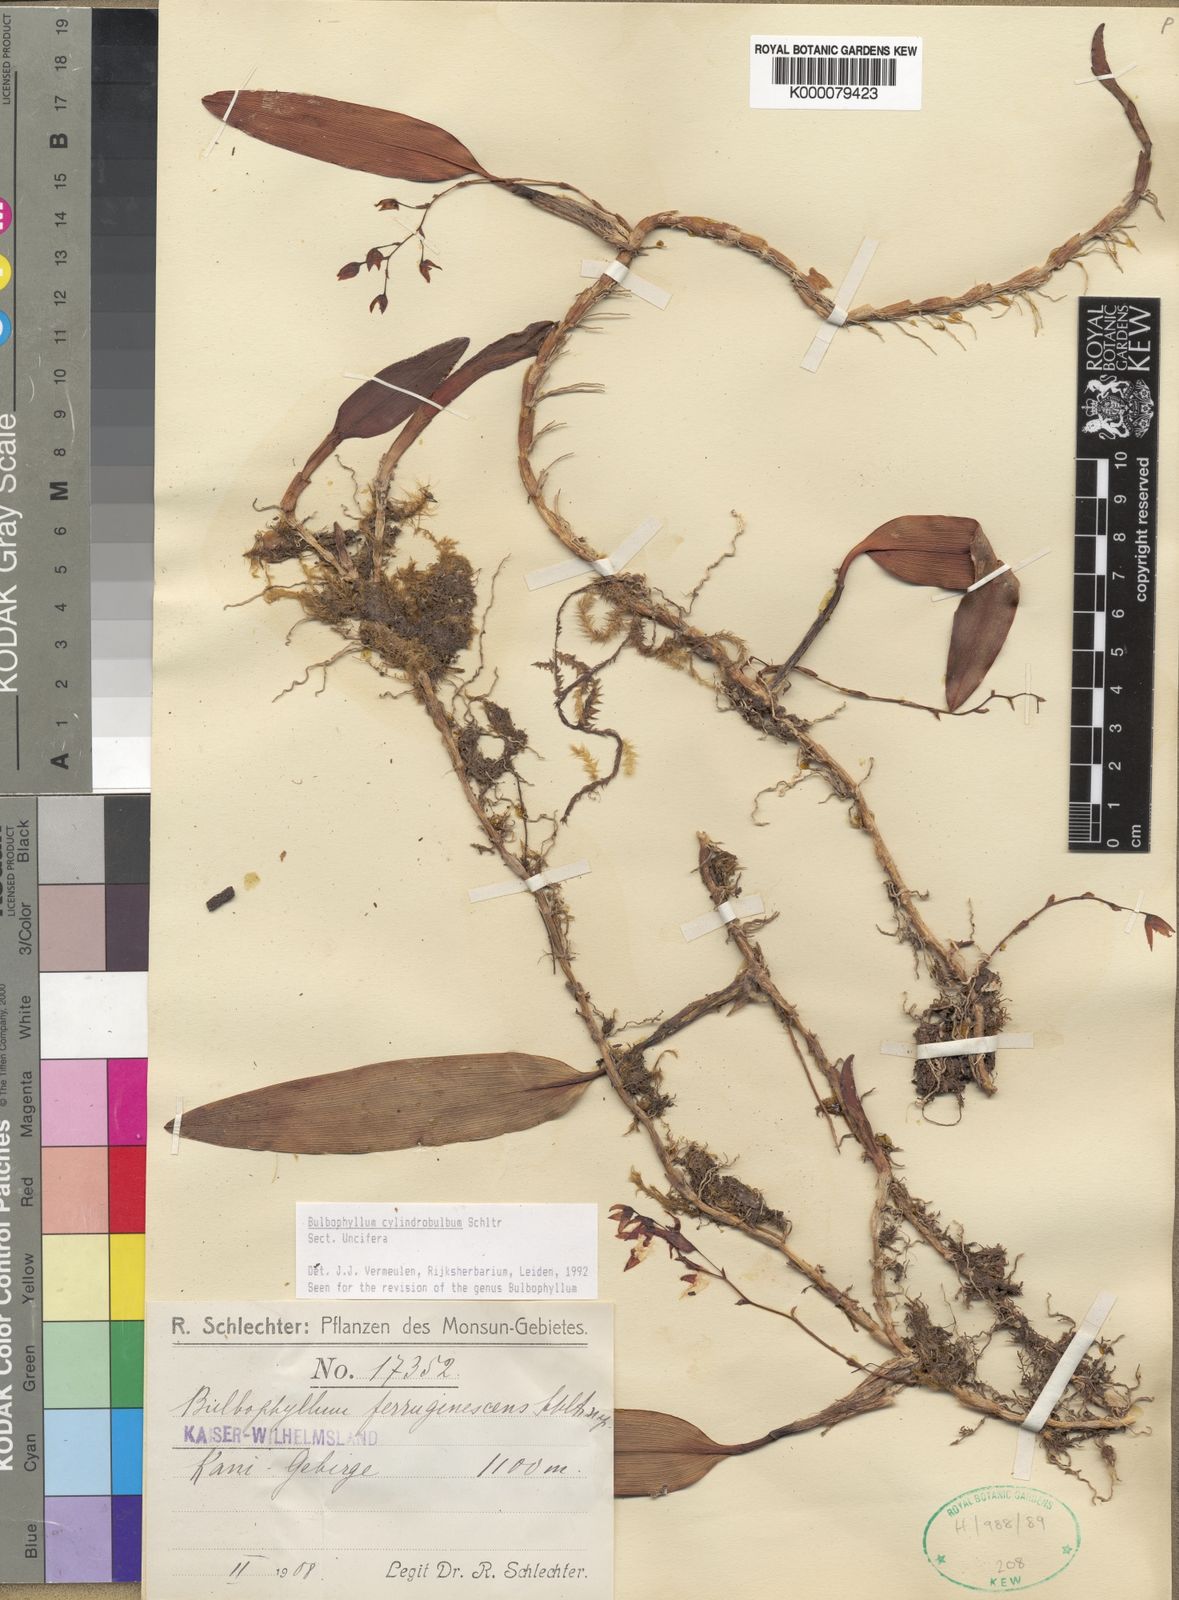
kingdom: Plantae
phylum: Tracheophyta
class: Liliopsida
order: Asparagales
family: Orchidaceae
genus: Bulbophyllum
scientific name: Bulbophyllum cylindrobulbum
